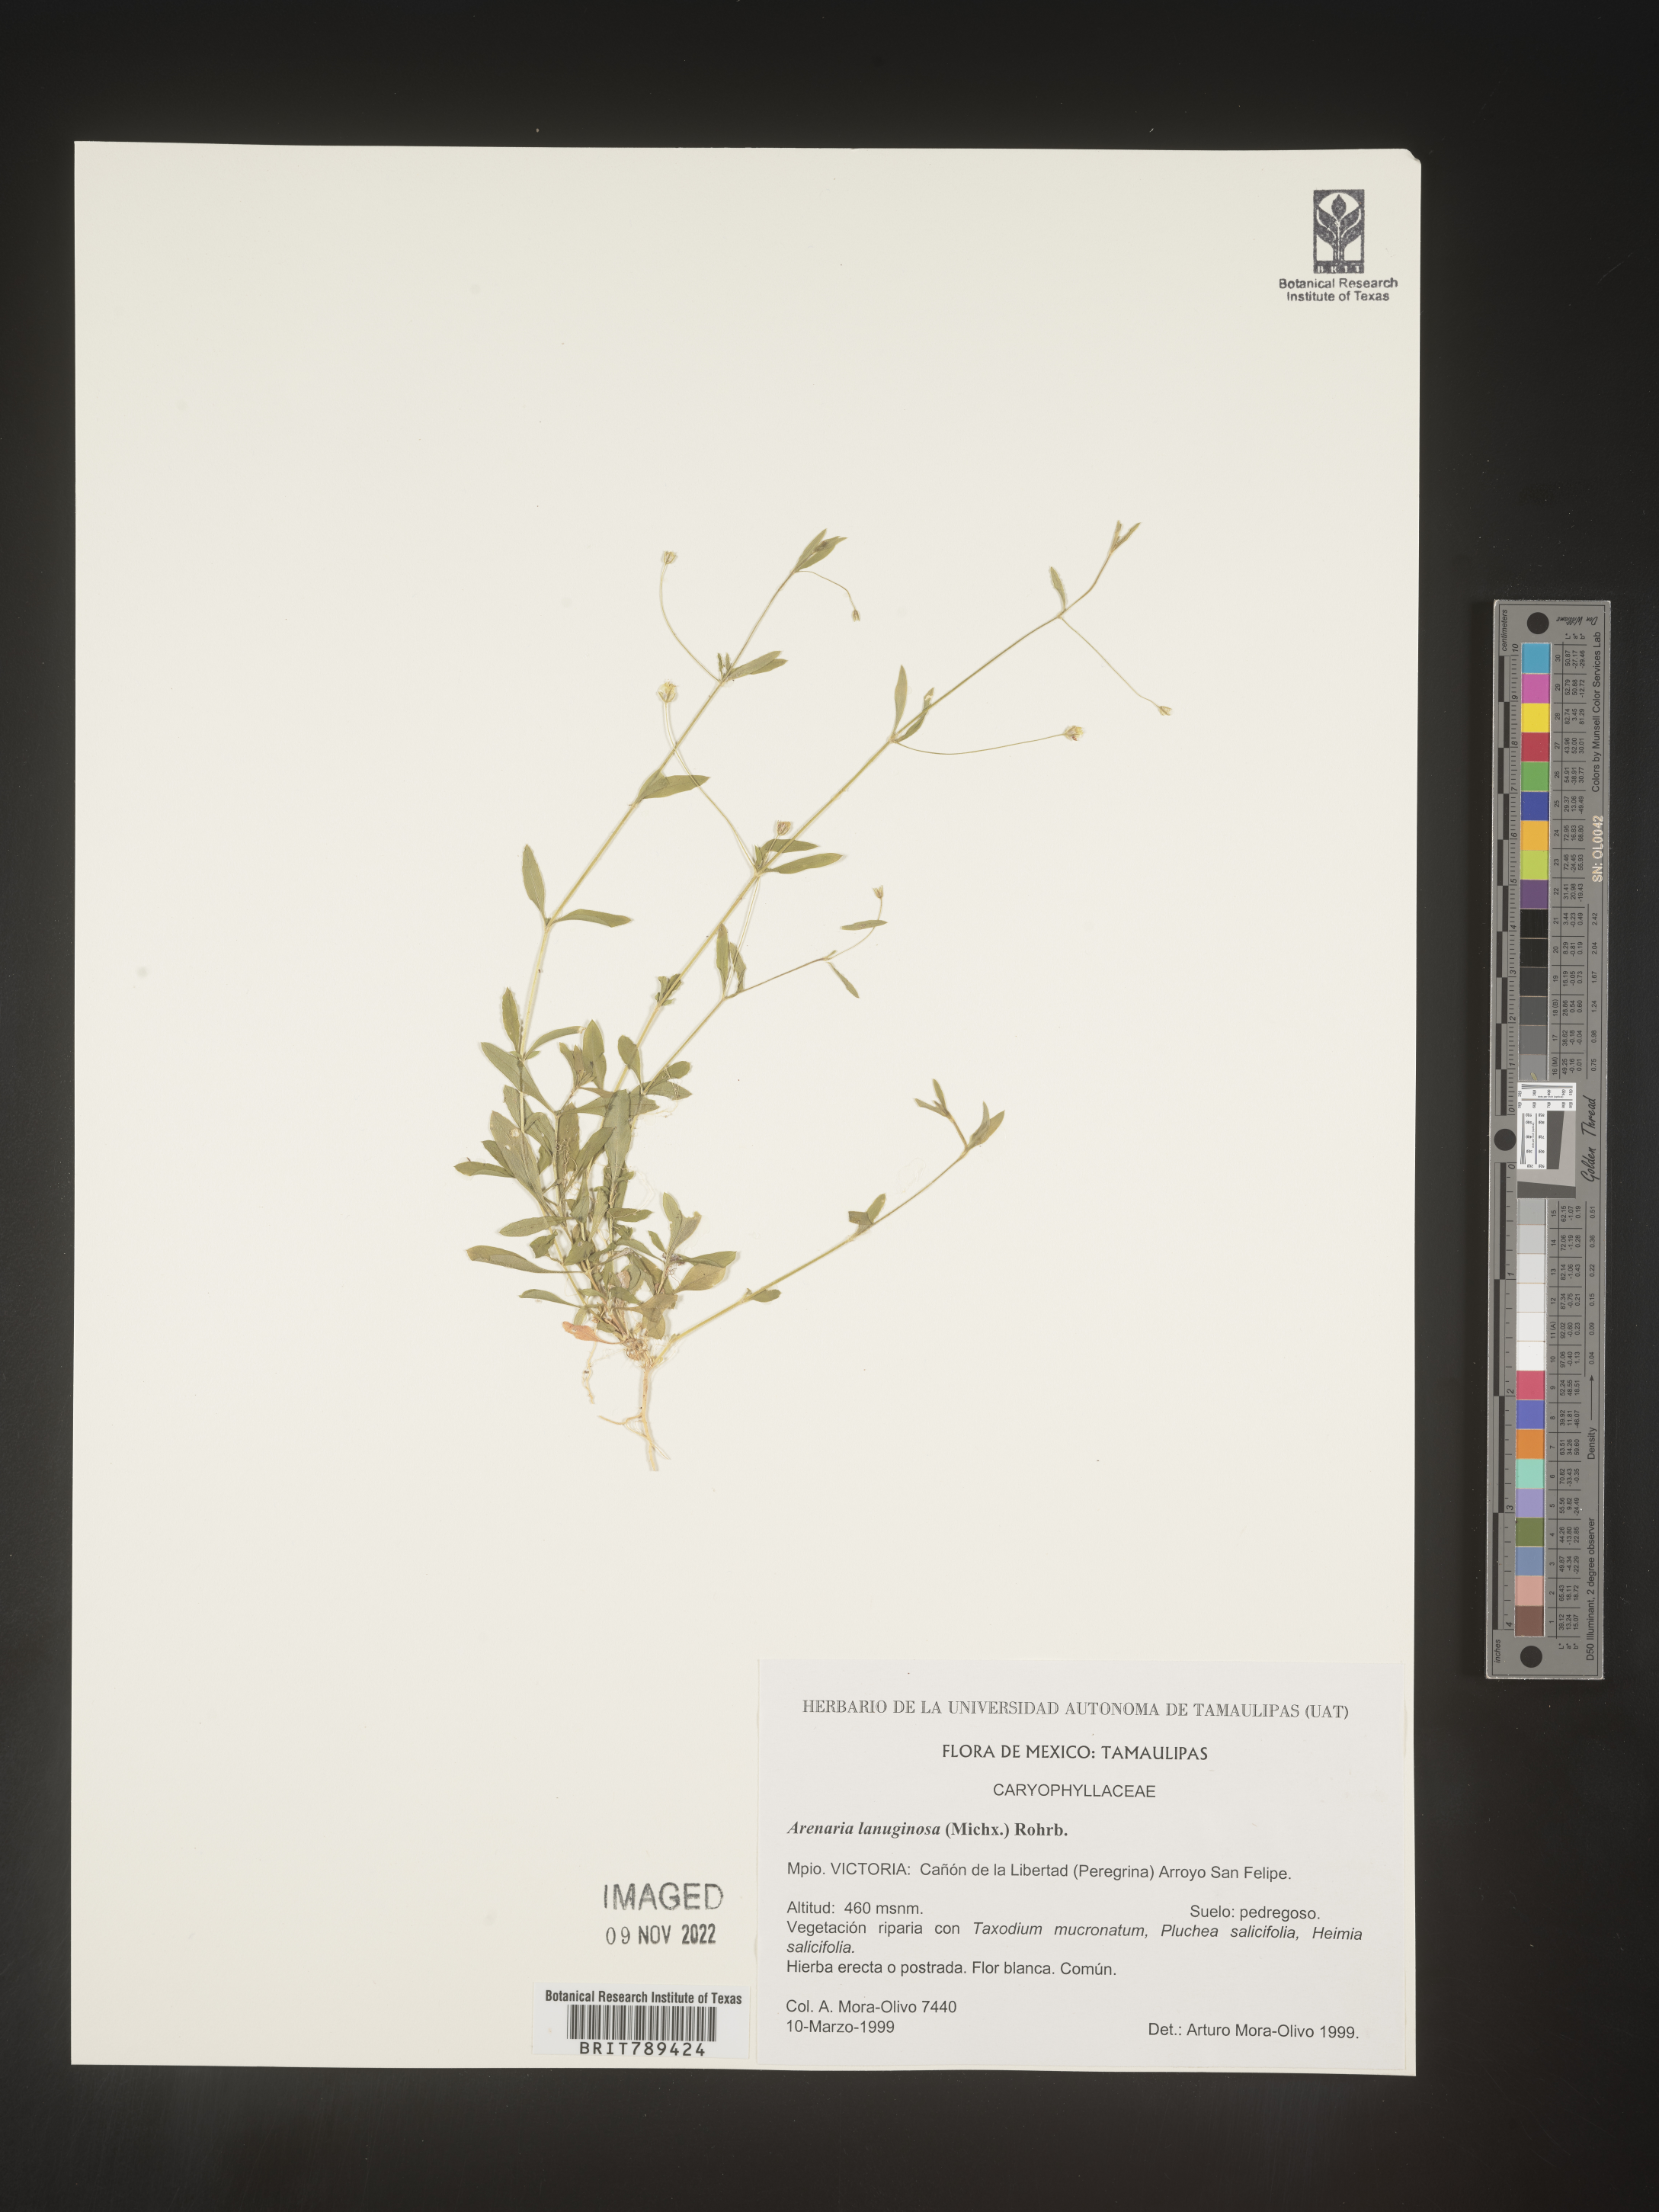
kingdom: Plantae
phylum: Tracheophyta
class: Magnoliopsida
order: Caryophyllales
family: Caryophyllaceae
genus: Arenaria
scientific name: Arenaria
